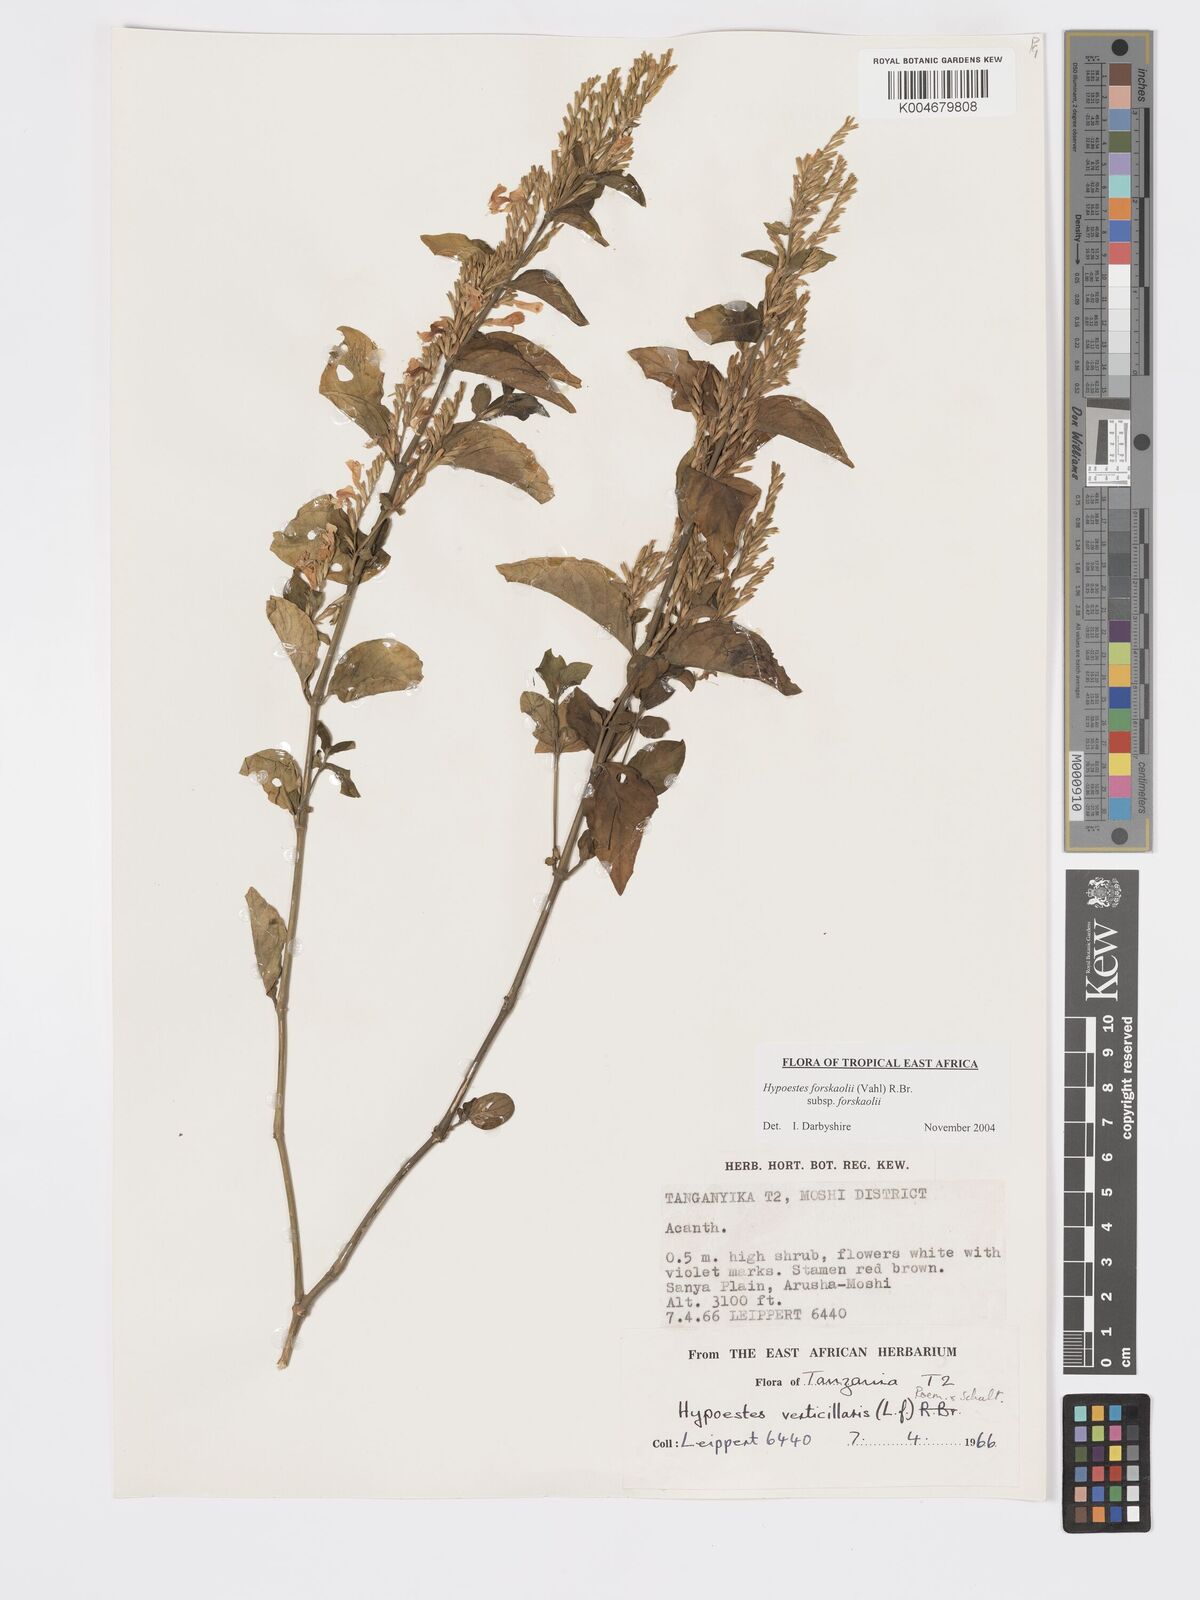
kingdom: Plantae
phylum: Tracheophyta
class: Magnoliopsida
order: Lamiales
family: Acanthaceae
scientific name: Acanthaceae
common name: Acanthaceae
